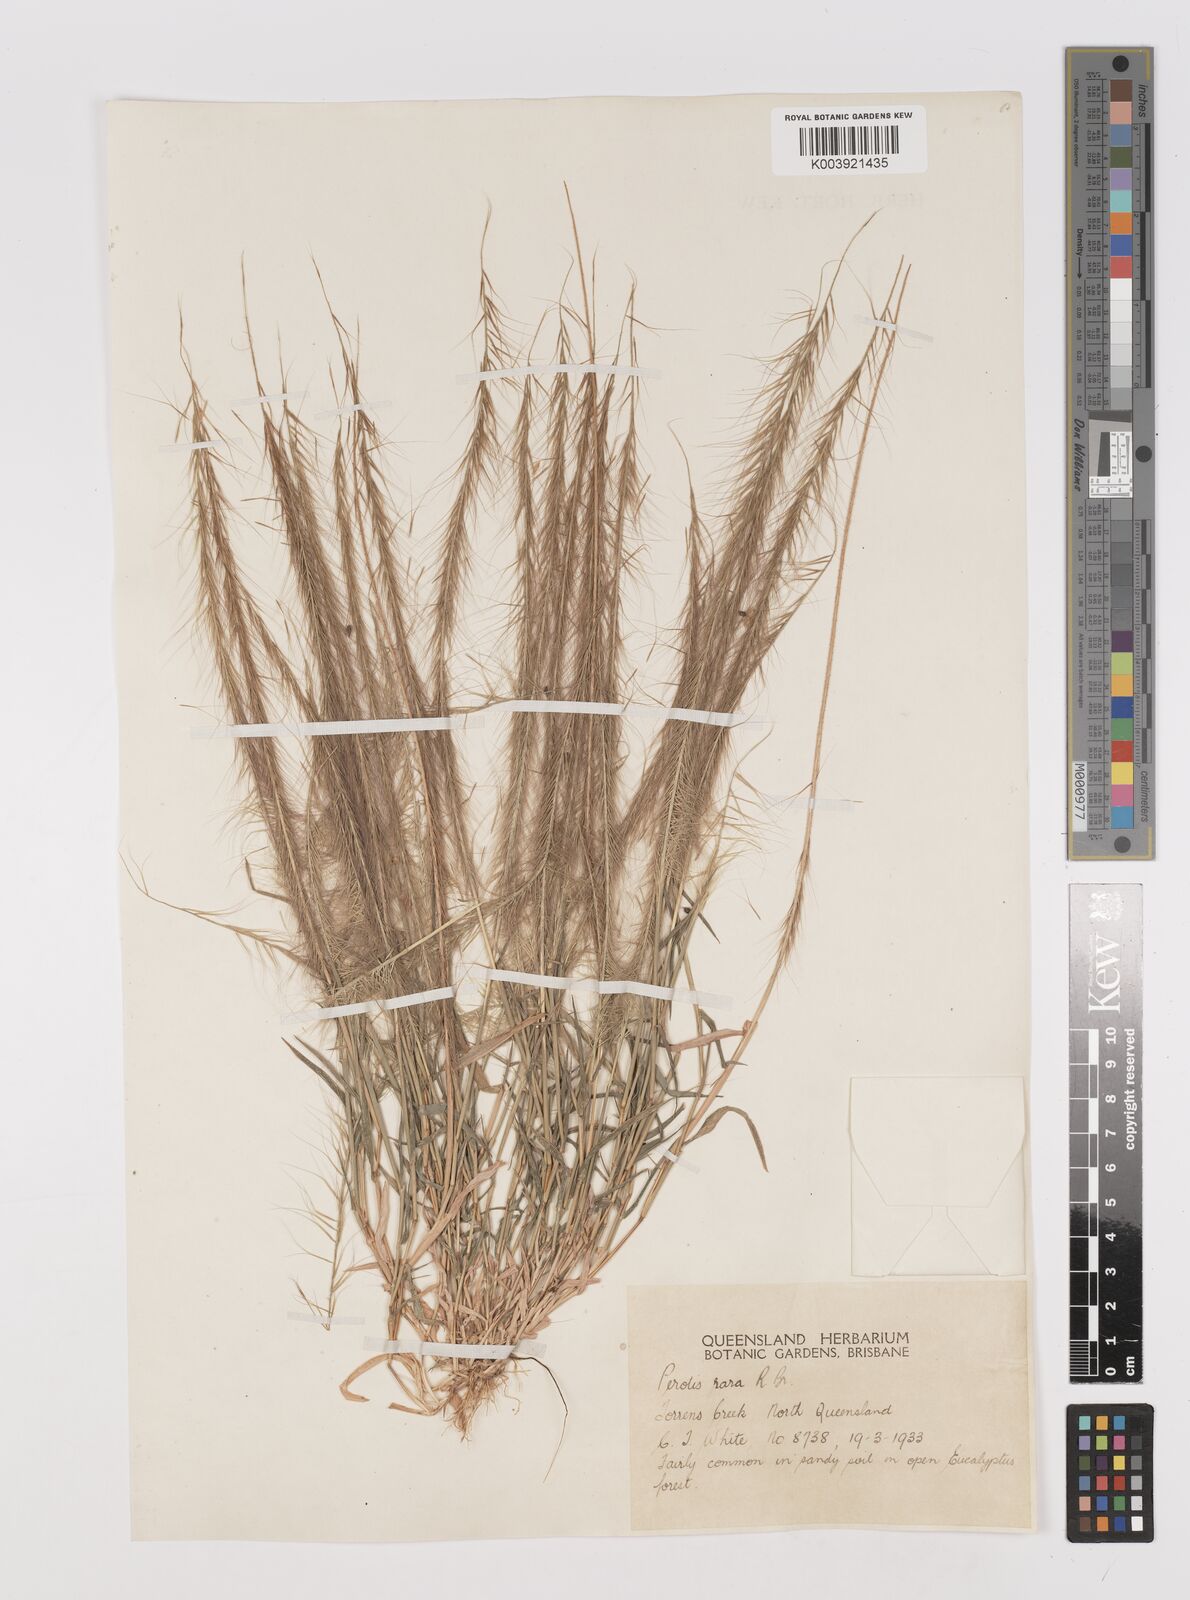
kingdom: Plantae
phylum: Tracheophyta
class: Liliopsida
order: Poales
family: Poaceae
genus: Perotis
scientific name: Perotis rara
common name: Comet grass
